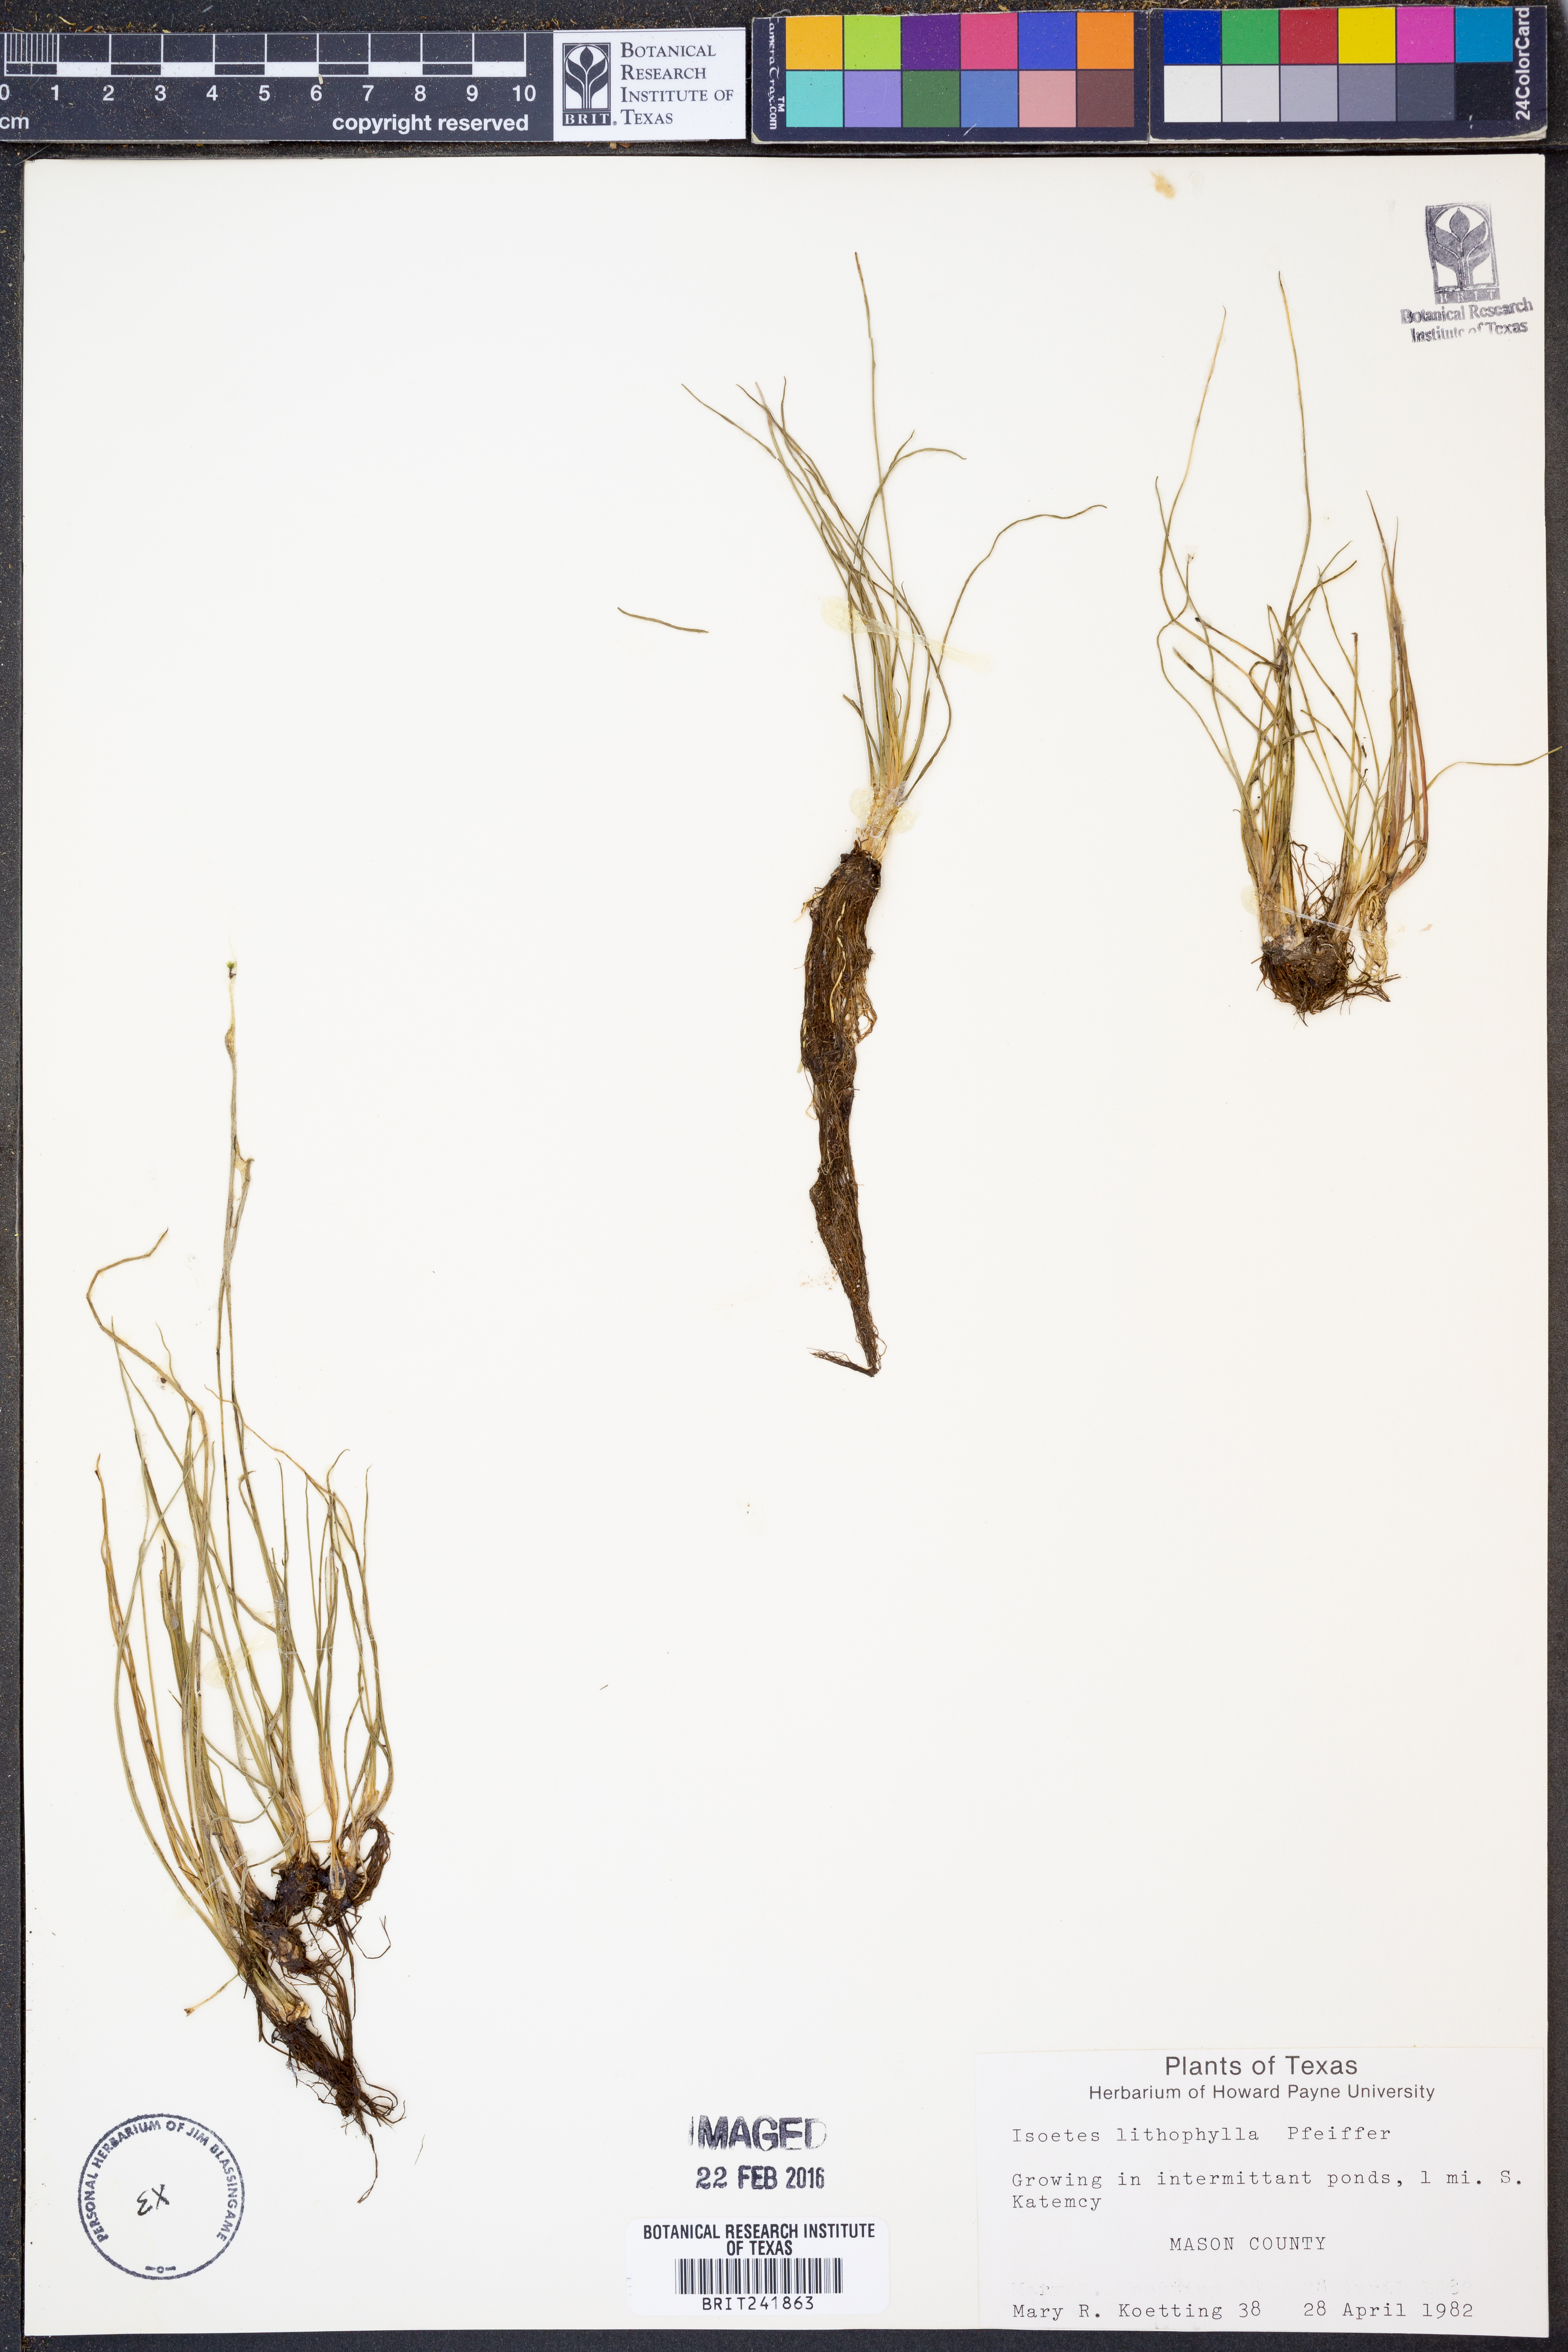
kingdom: Plantae
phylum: Tracheophyta
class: Lycopodiopsida
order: Isoetales
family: Isoetaceae
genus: Isoetes
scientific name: Isoetes lithophila
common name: Rock quillwort
